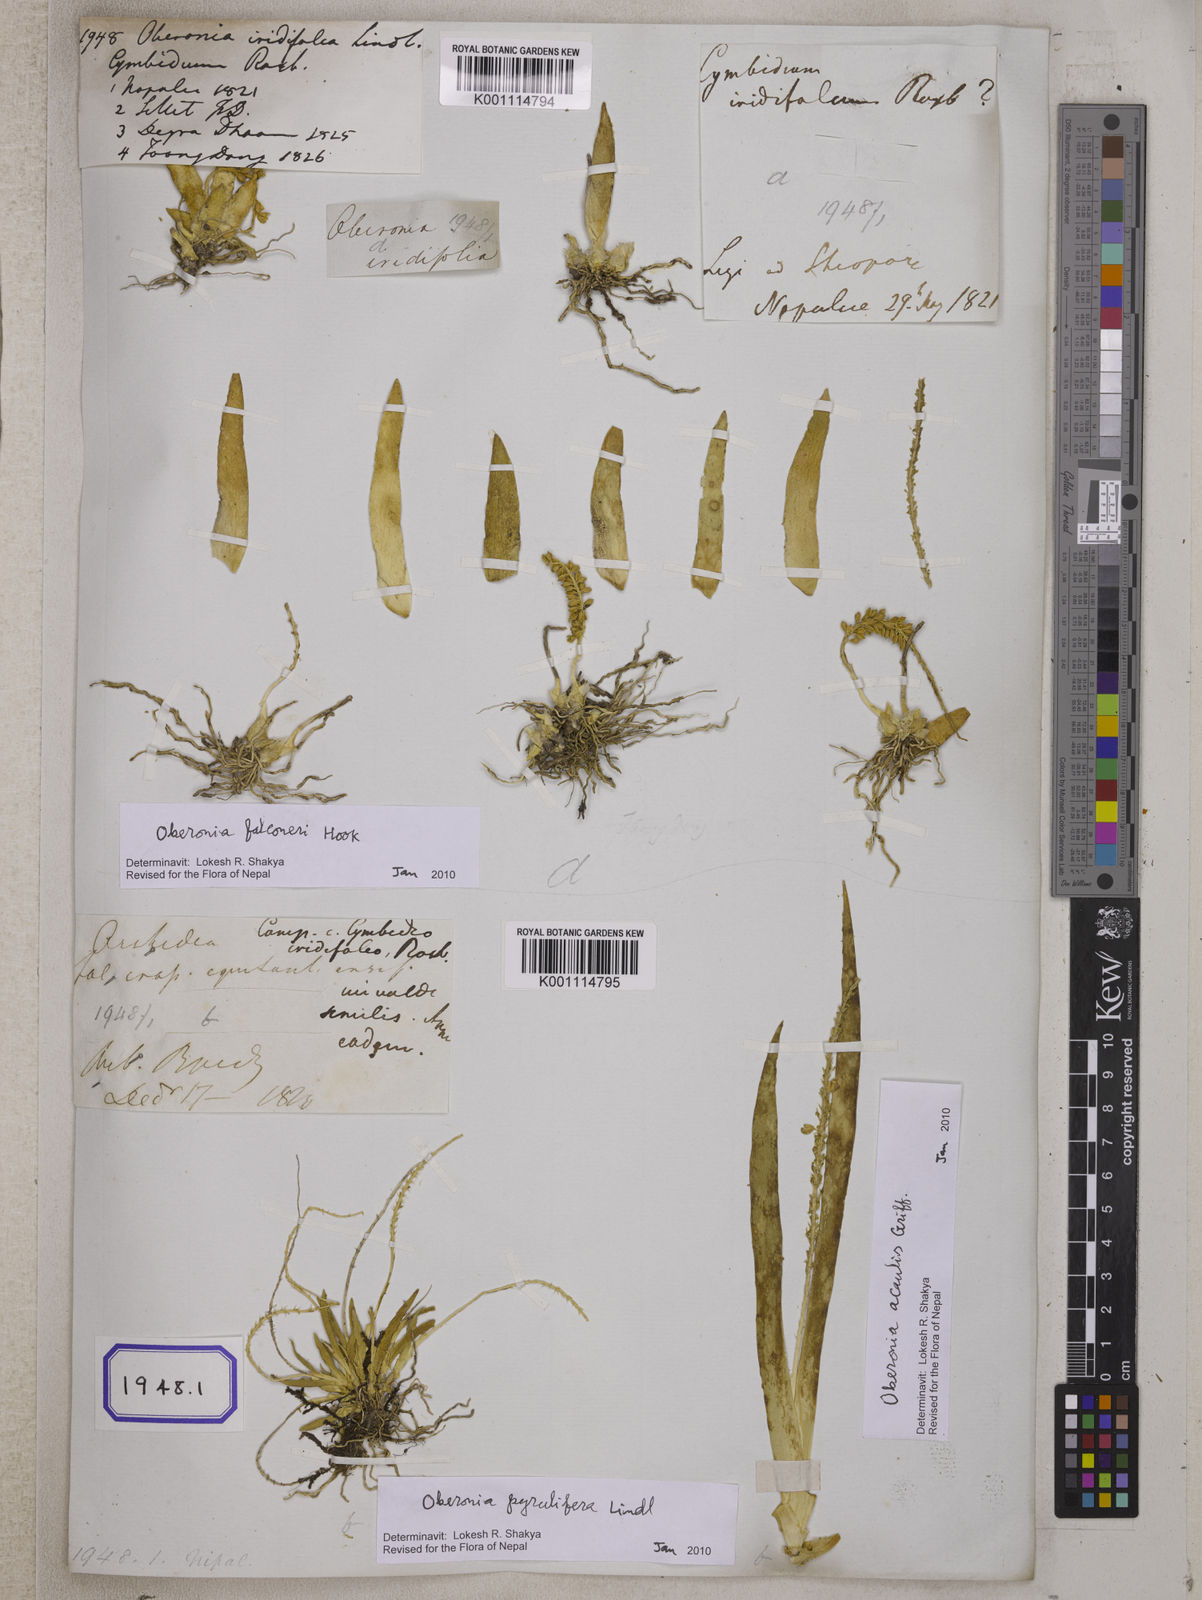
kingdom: Plantae
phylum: Tracheophyta
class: Liliopsida
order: Asparagales
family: Orchidaceae
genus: Oberonia
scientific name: Oberonia
